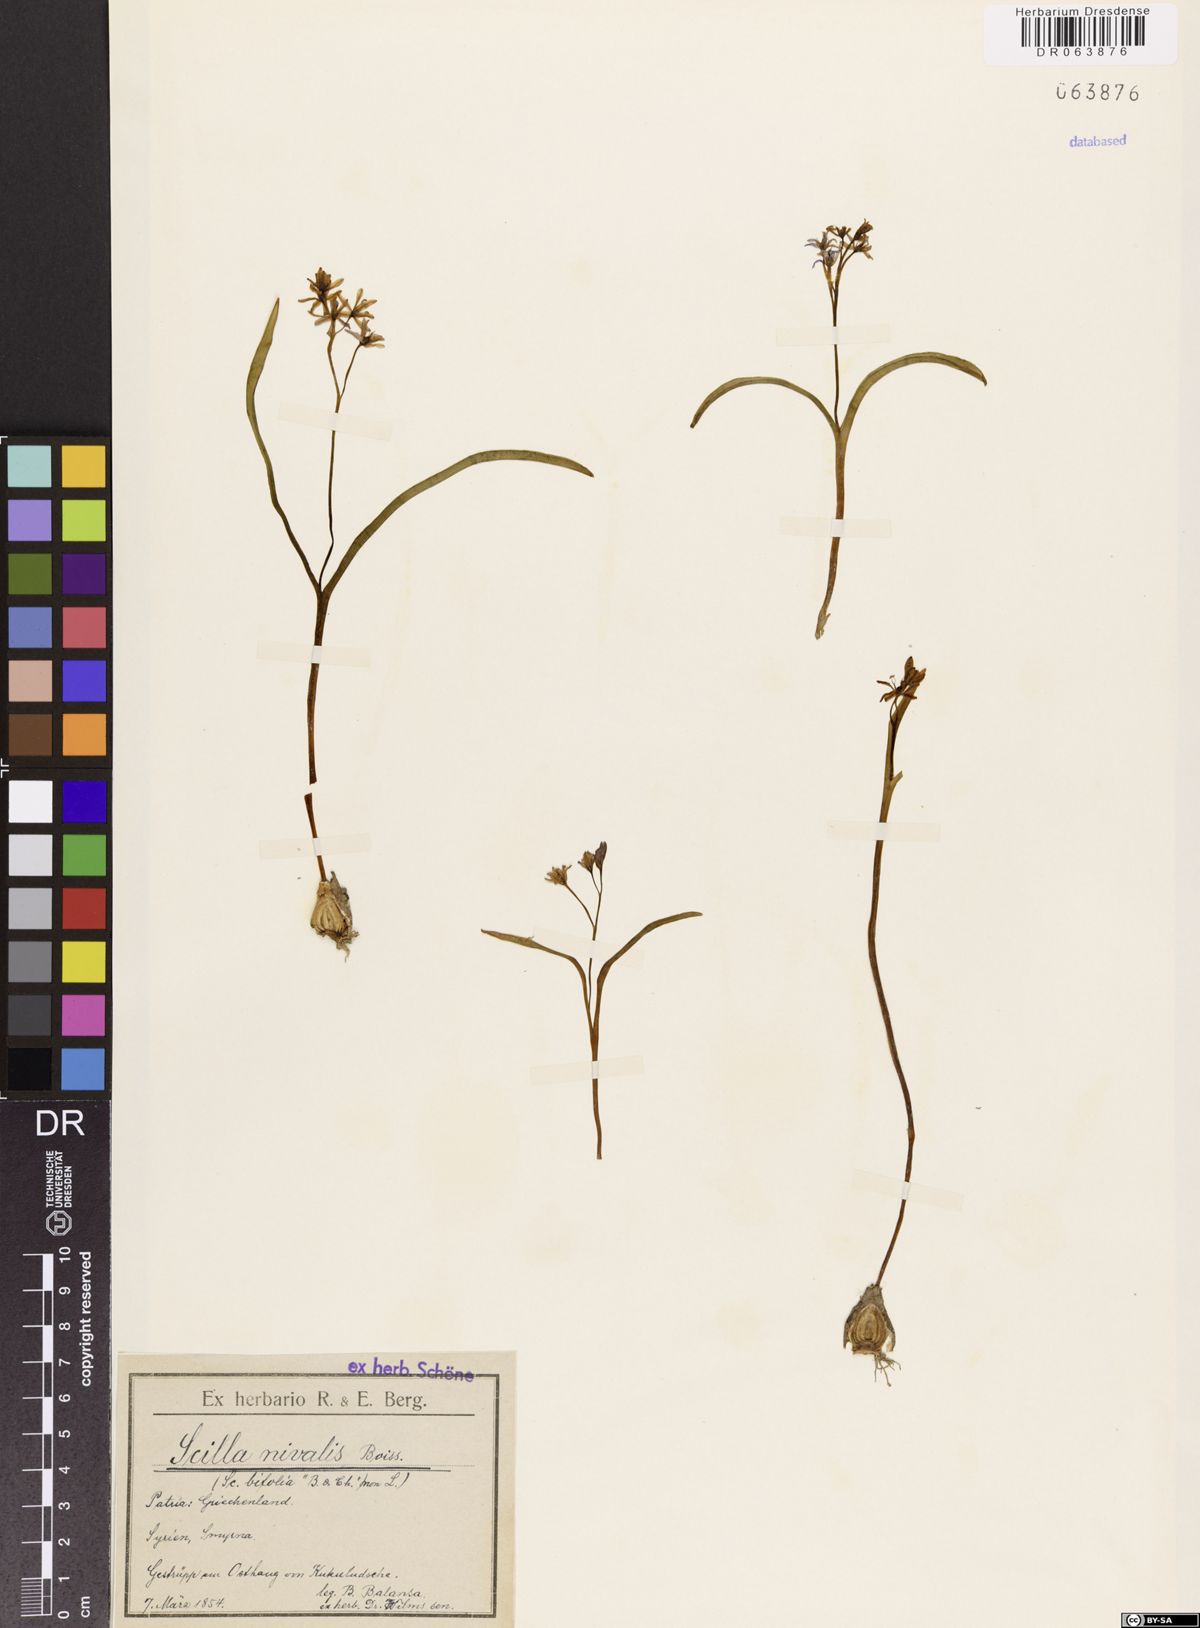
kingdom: Plantae
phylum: Tracheophyta
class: Liliopsida
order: Asparagales
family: Asparagaceae
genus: Scilla
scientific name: Scilla nivalis
